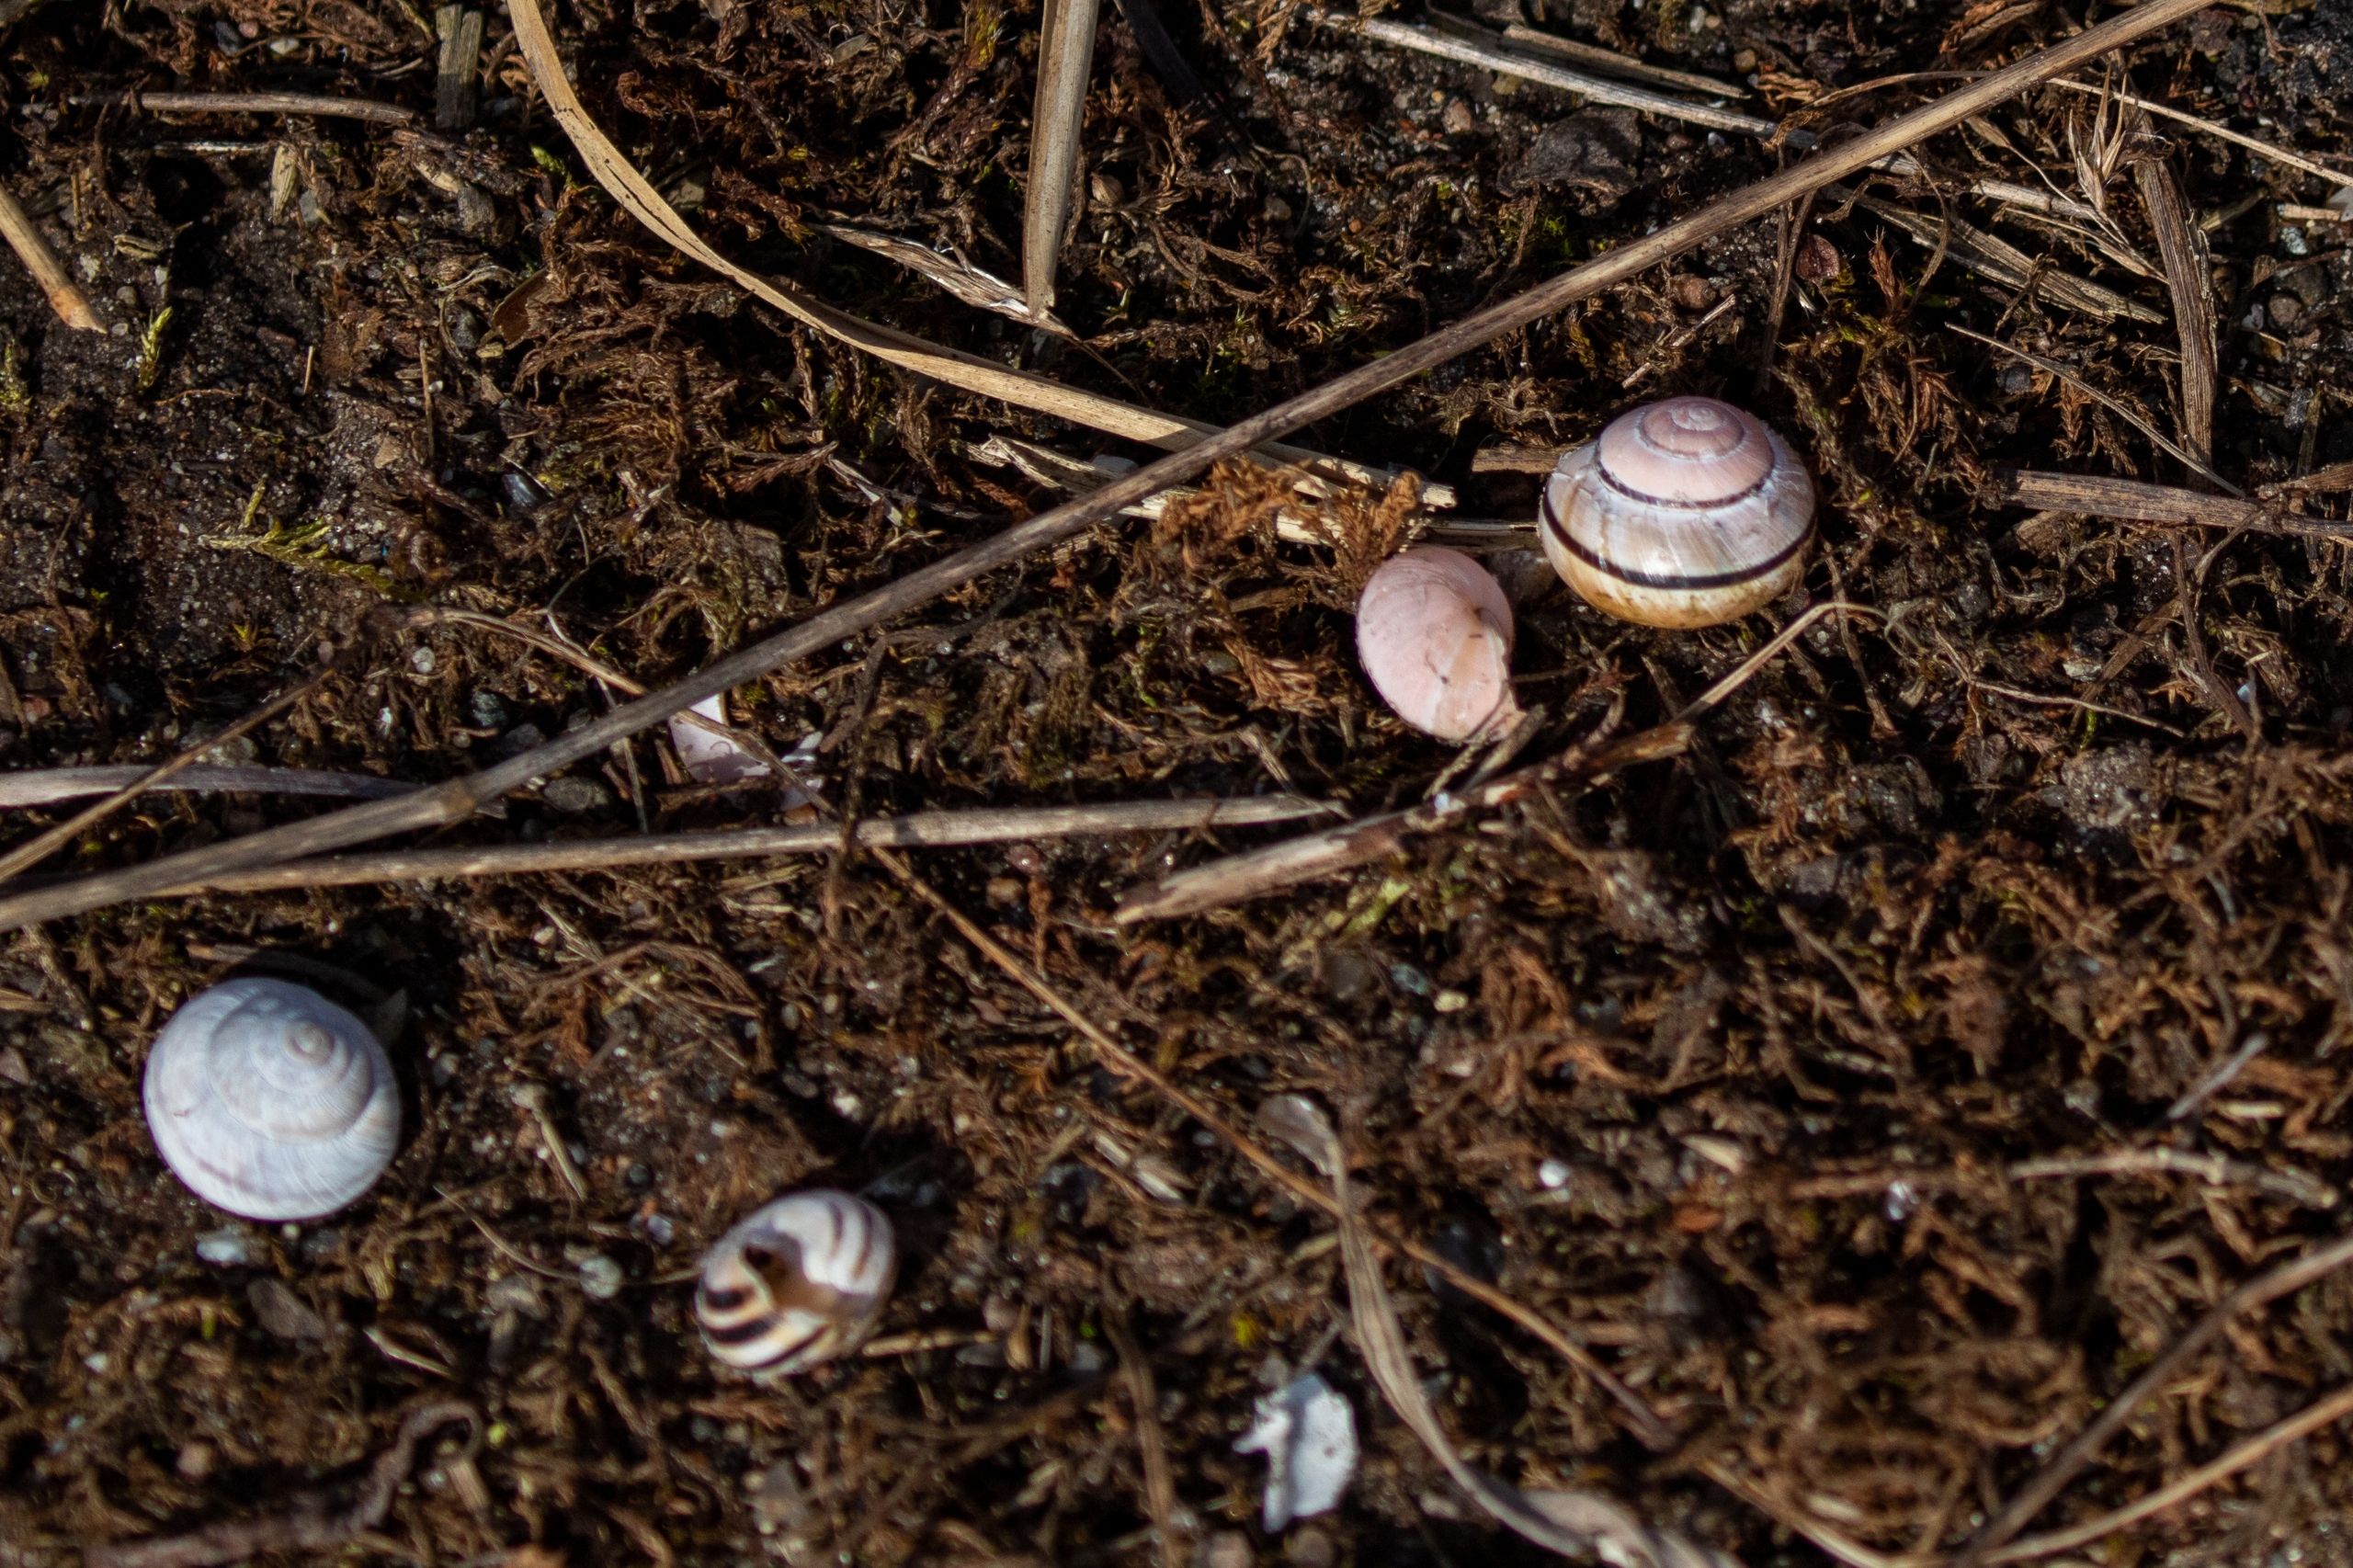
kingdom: Animalia
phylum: Mollusca
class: Gastropoda
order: Stylommatophora
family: Helicidae
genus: Cepaea
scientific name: Cepaea hortensis
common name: Havesnegl
